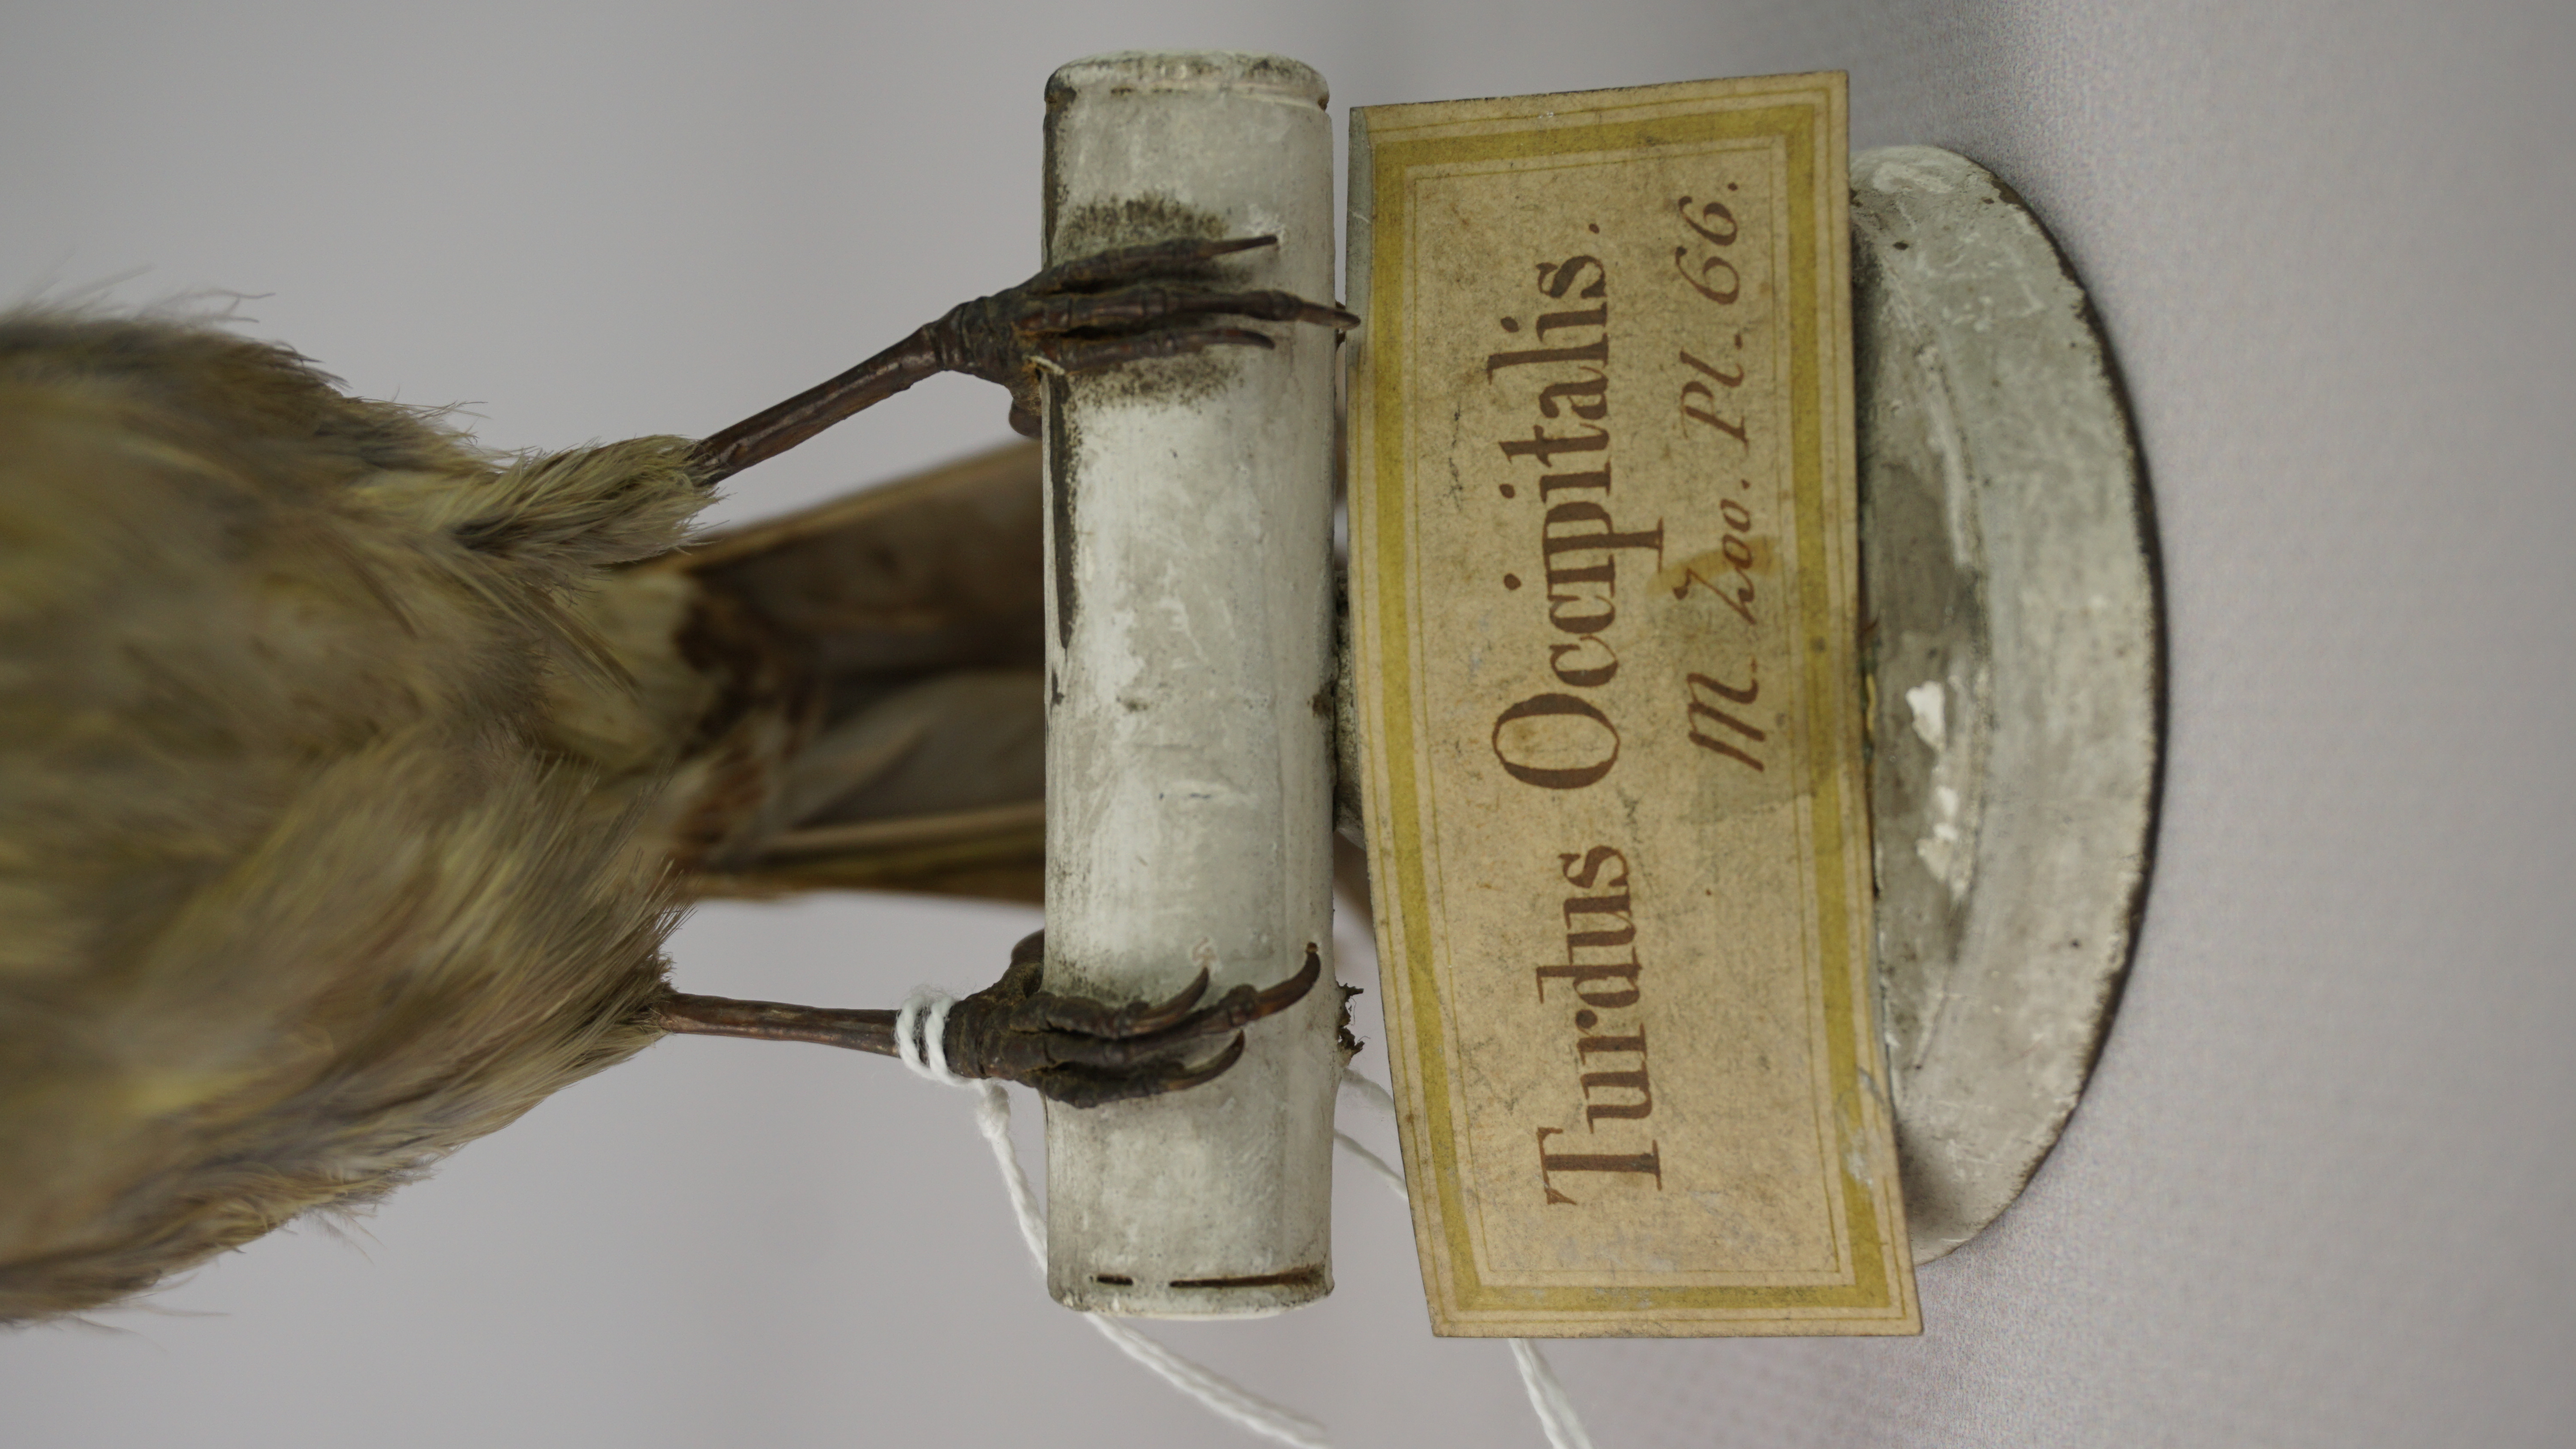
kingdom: Animalia
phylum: Chordata
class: Aves
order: Passeriformes
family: Pycnonotidae
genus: Pycnonotus
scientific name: Pycnonotus sinensis
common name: Light-vented bulbul
